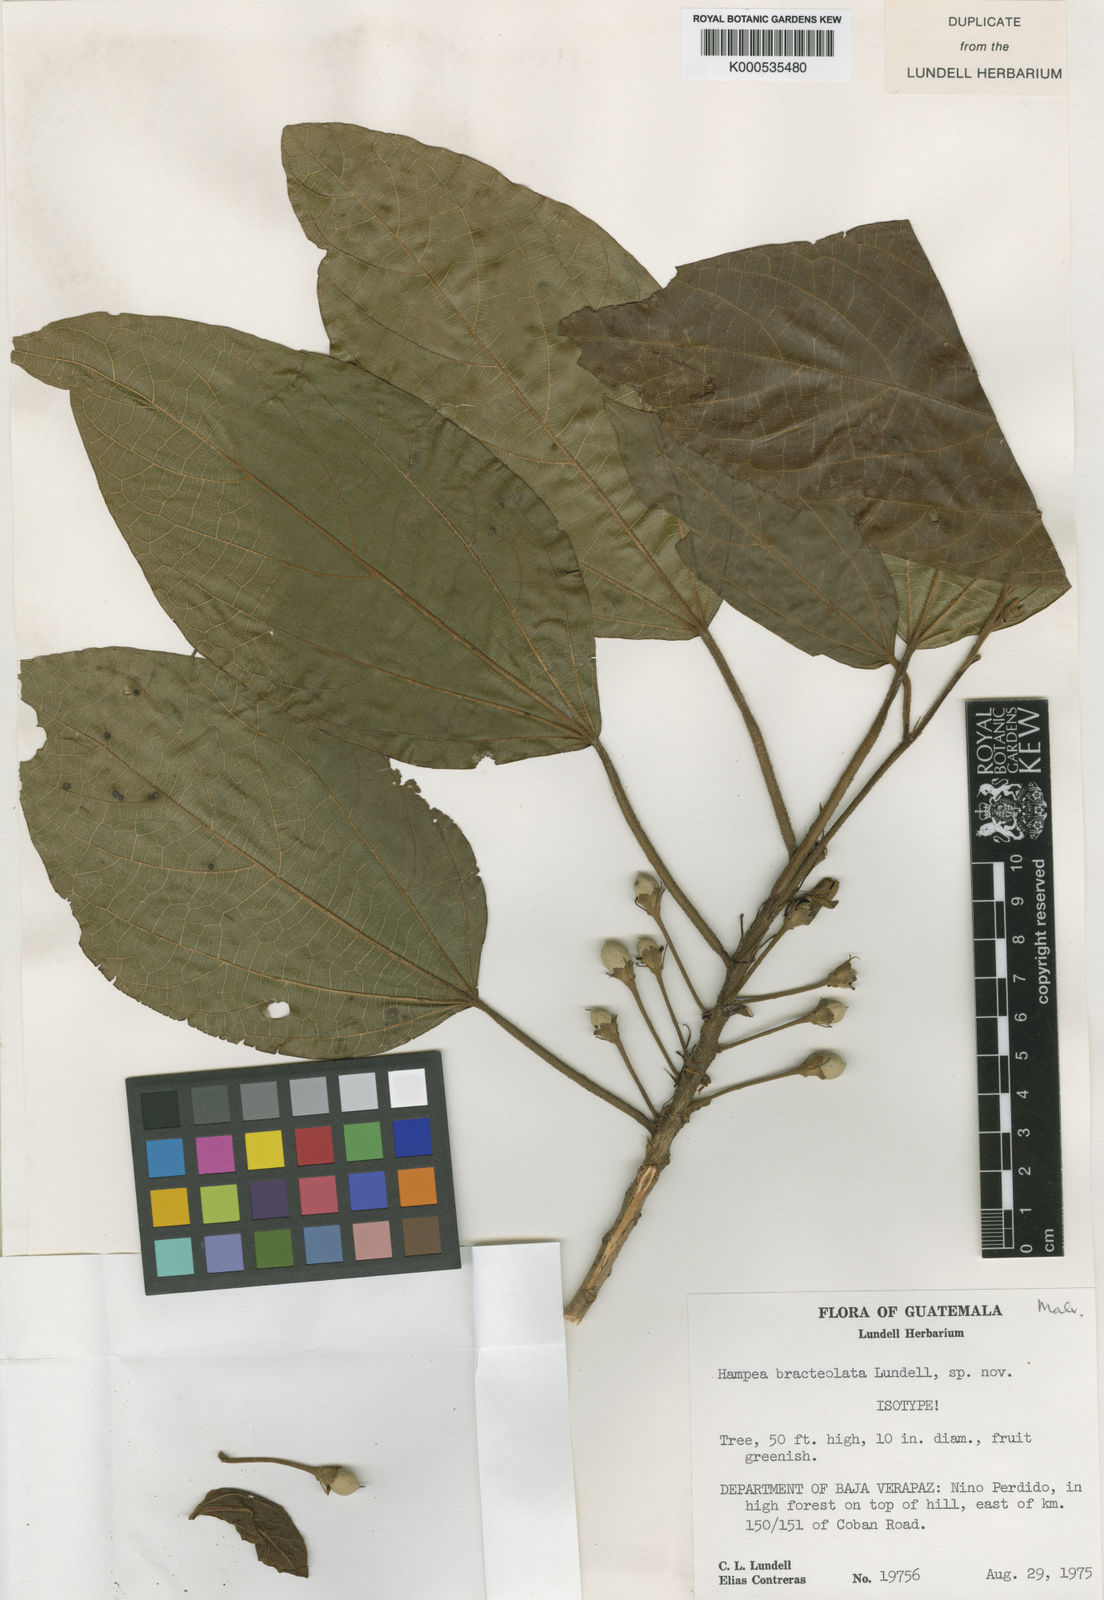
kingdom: Plantae
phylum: Tracheophyta
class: Magnoliopsida
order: Malvales
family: Malvaceae
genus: Hampea
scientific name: Hampea bracteolata
